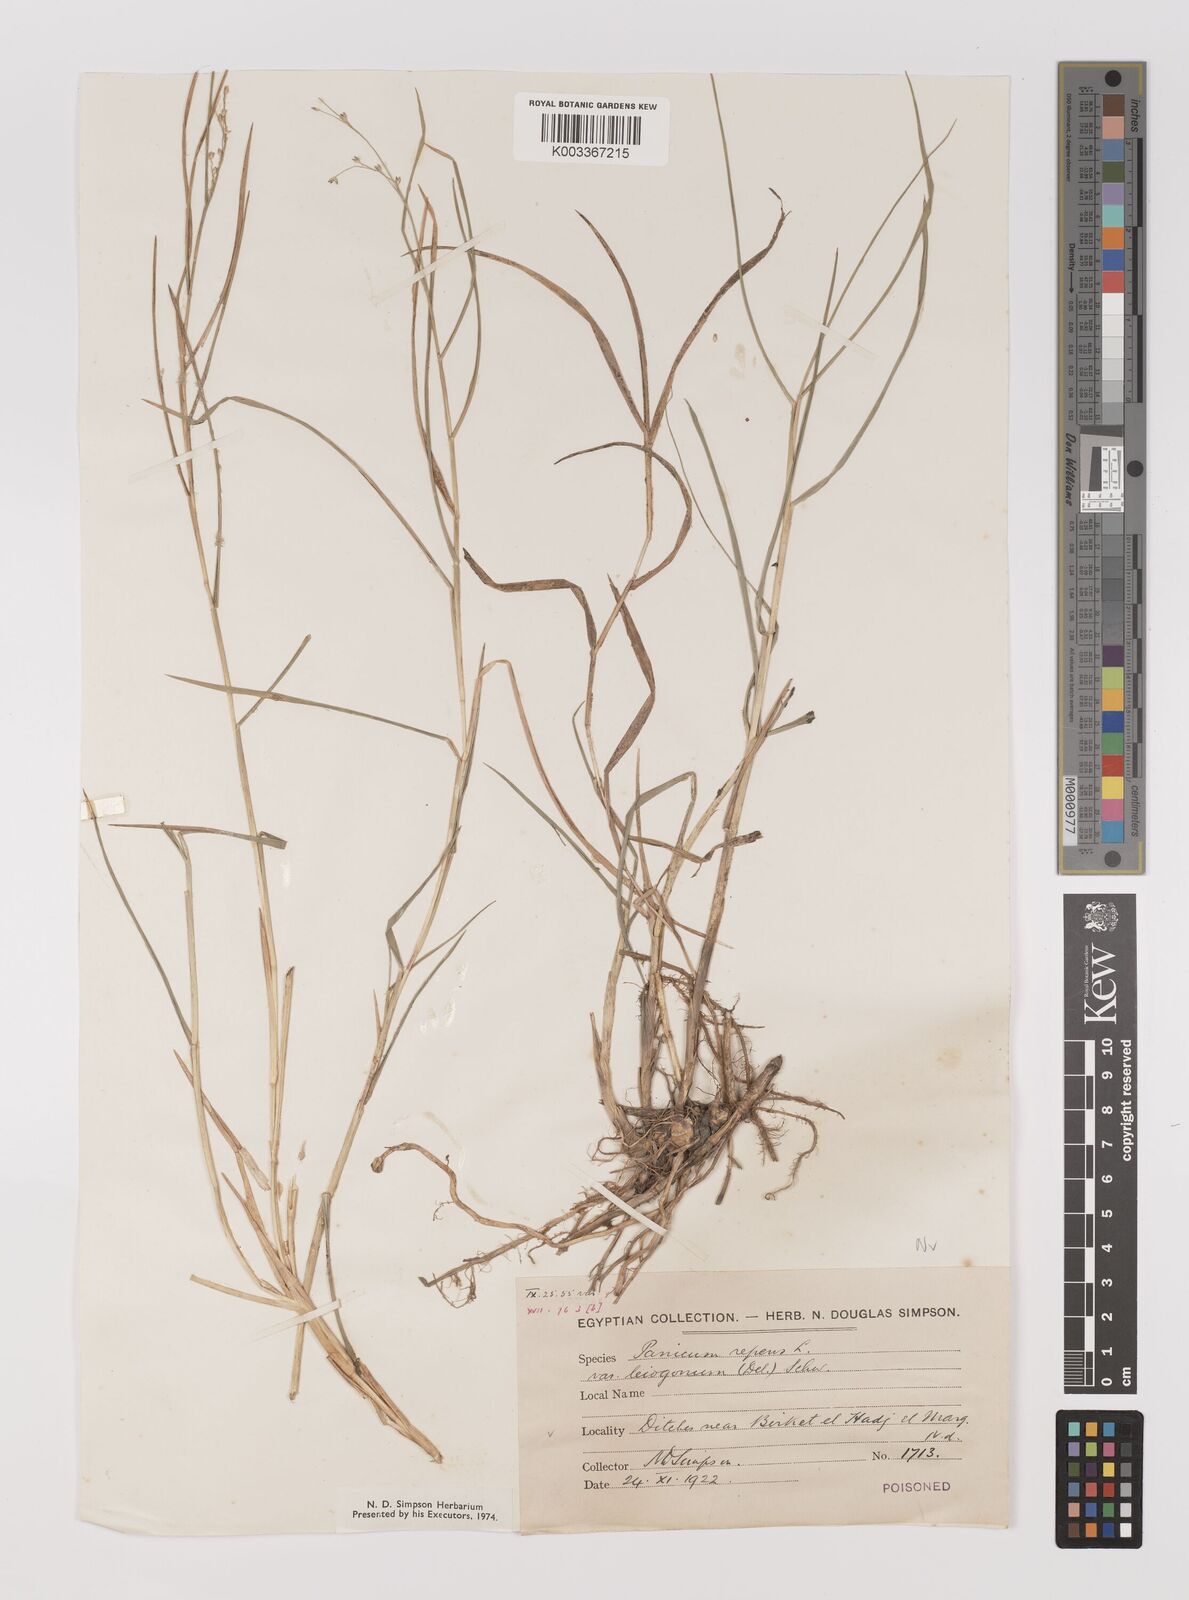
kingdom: Plantae
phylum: Tracheophyta
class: Liliopsida
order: Poales
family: Poaceae
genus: Panicum
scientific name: Panicum repens
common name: Torpedo grass
